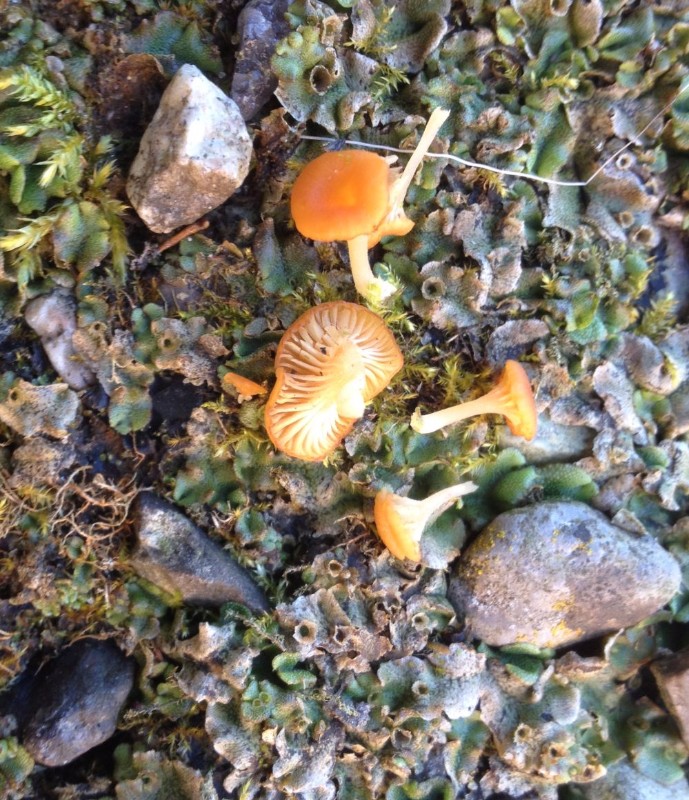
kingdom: Fungi
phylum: Basidiomycota
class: Agaricomycetes
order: Hymenochaetales
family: Rickenellaceae
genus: Loreleia
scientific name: Loreleia
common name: mosnavlehat
